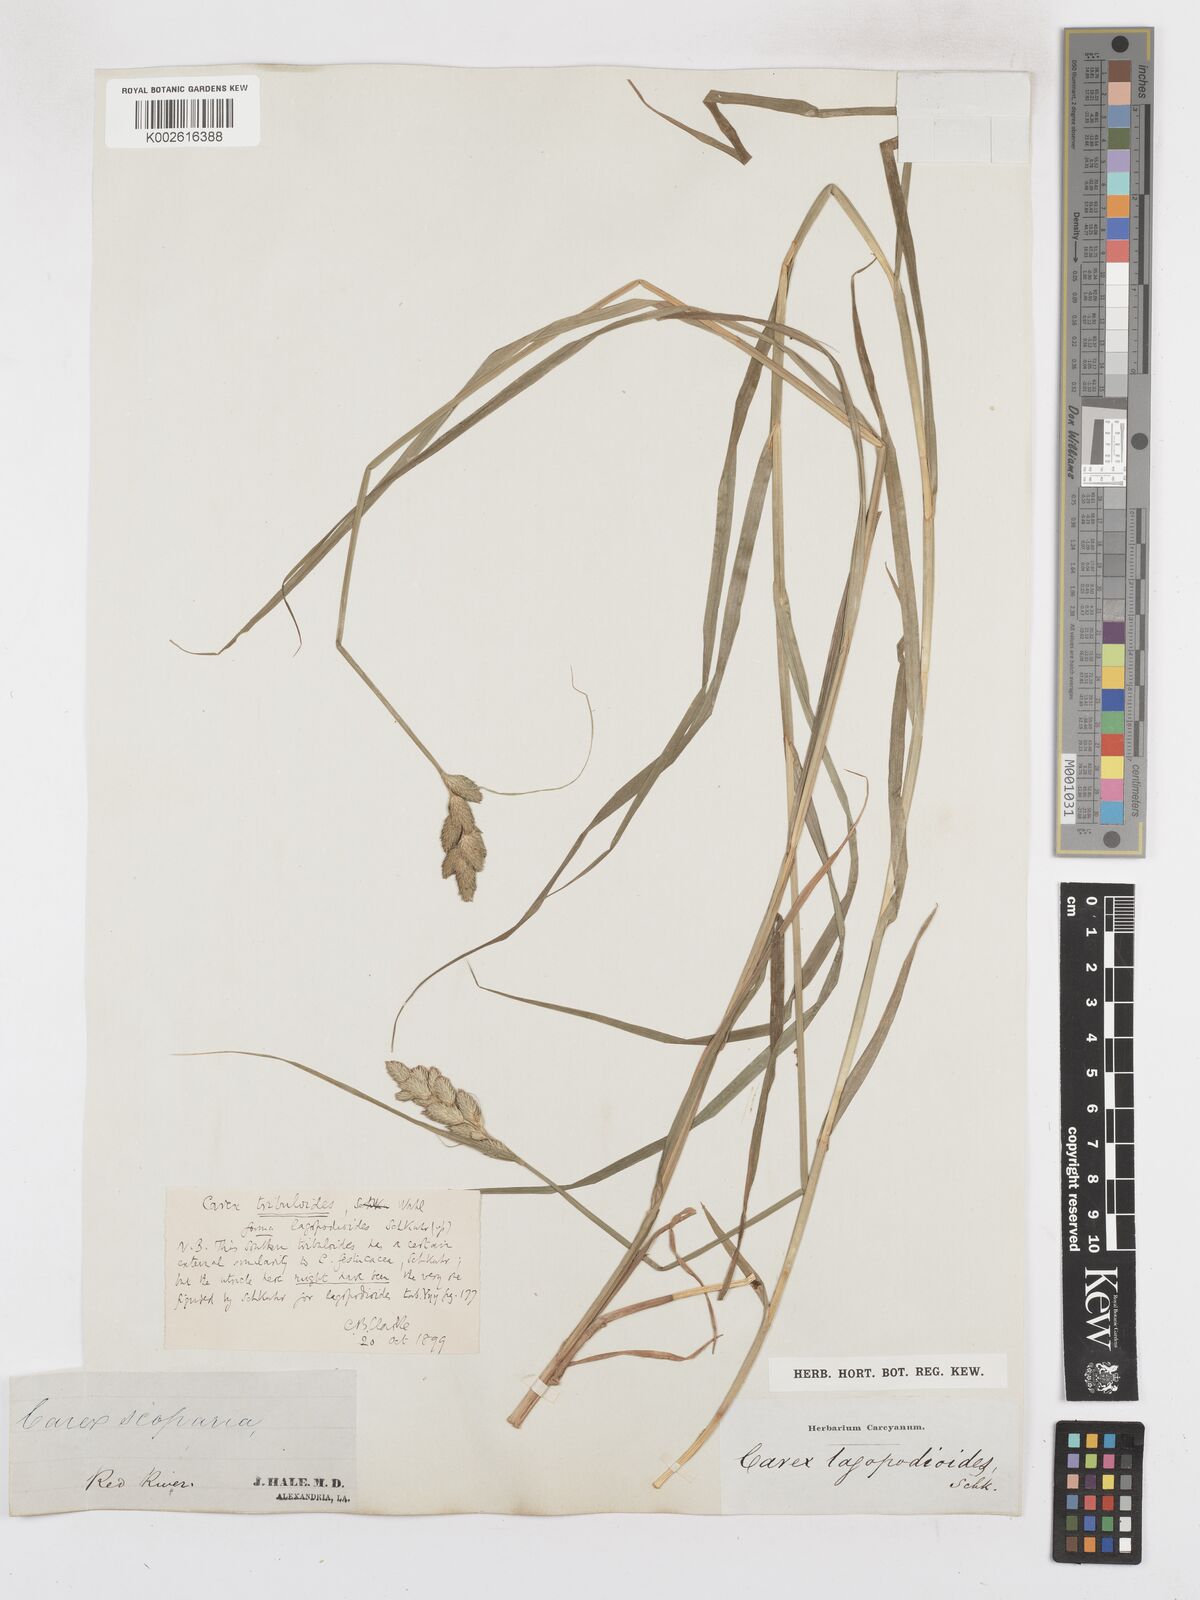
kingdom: Plantae
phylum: Tracheophyta
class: Liliopsida
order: Poales
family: Cyperaceae
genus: Carex
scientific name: Carex tribuloides
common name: Blunt broom sedge
